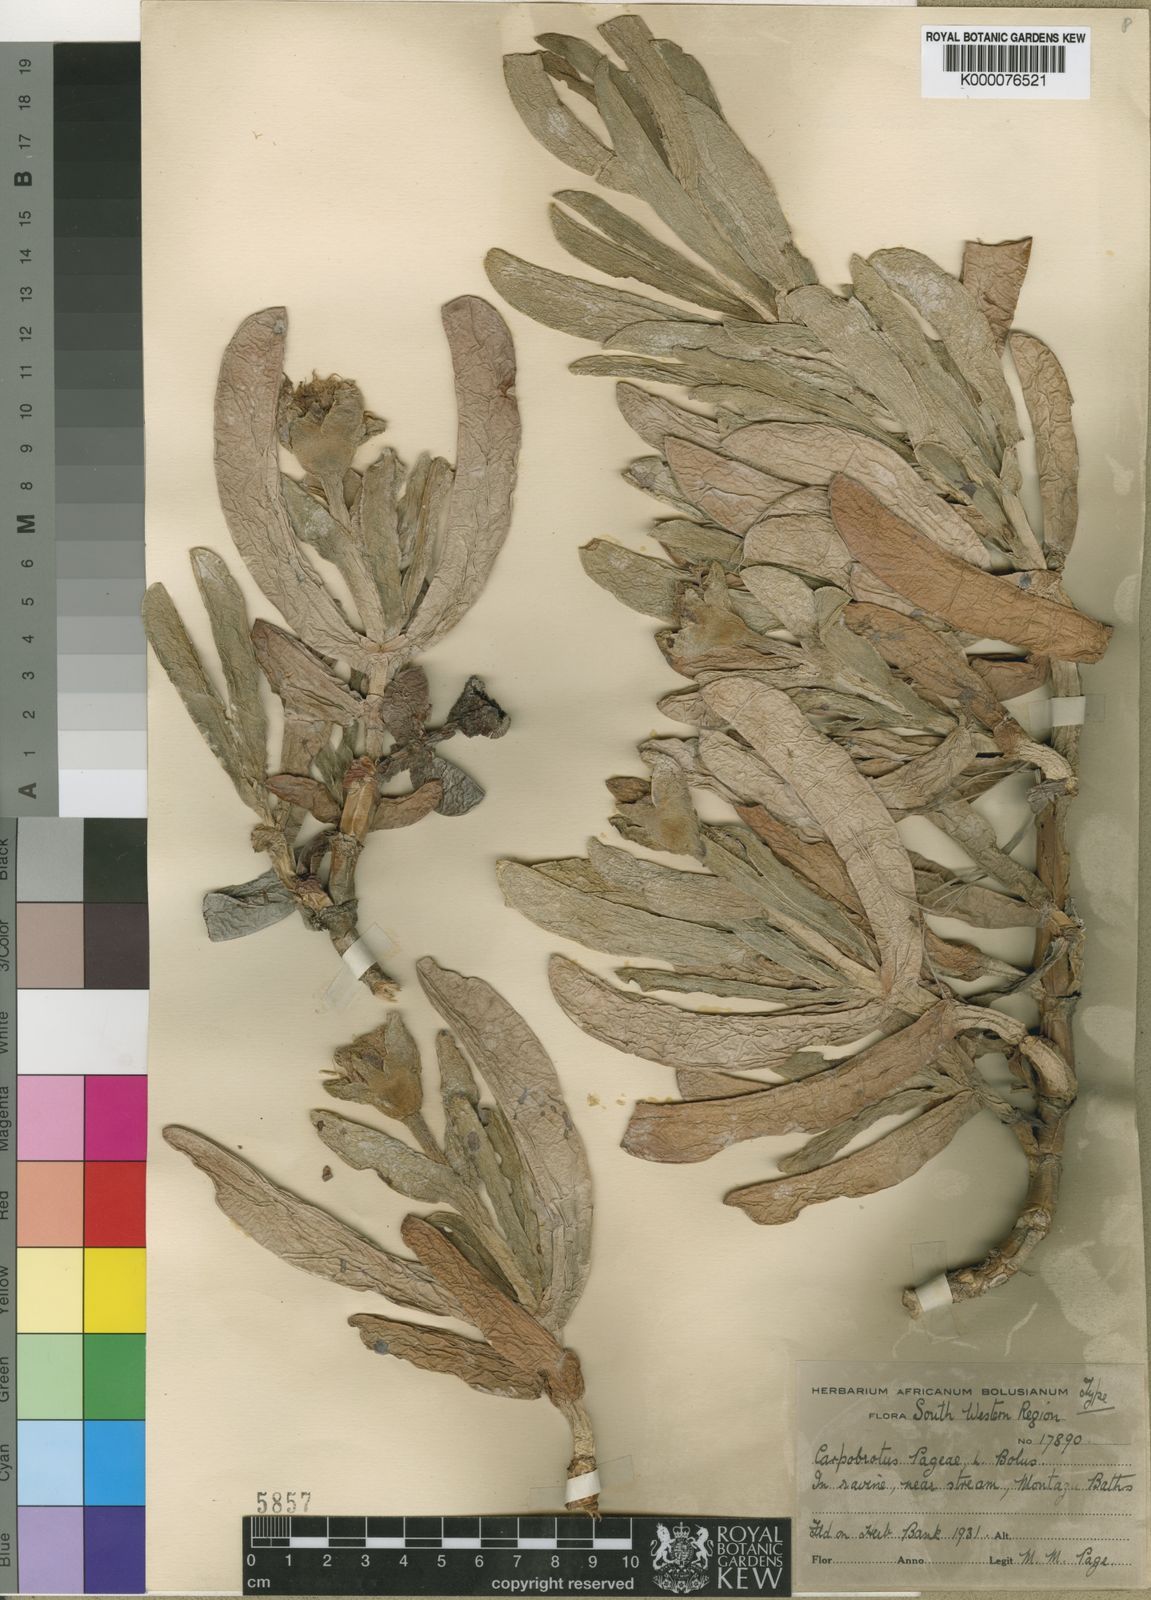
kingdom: Plantae
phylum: Tracheophyta
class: Magnoliopsida
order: Caryophyllales
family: Aizoaceae
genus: Carpobrotus
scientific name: Carpobrotus mellei
